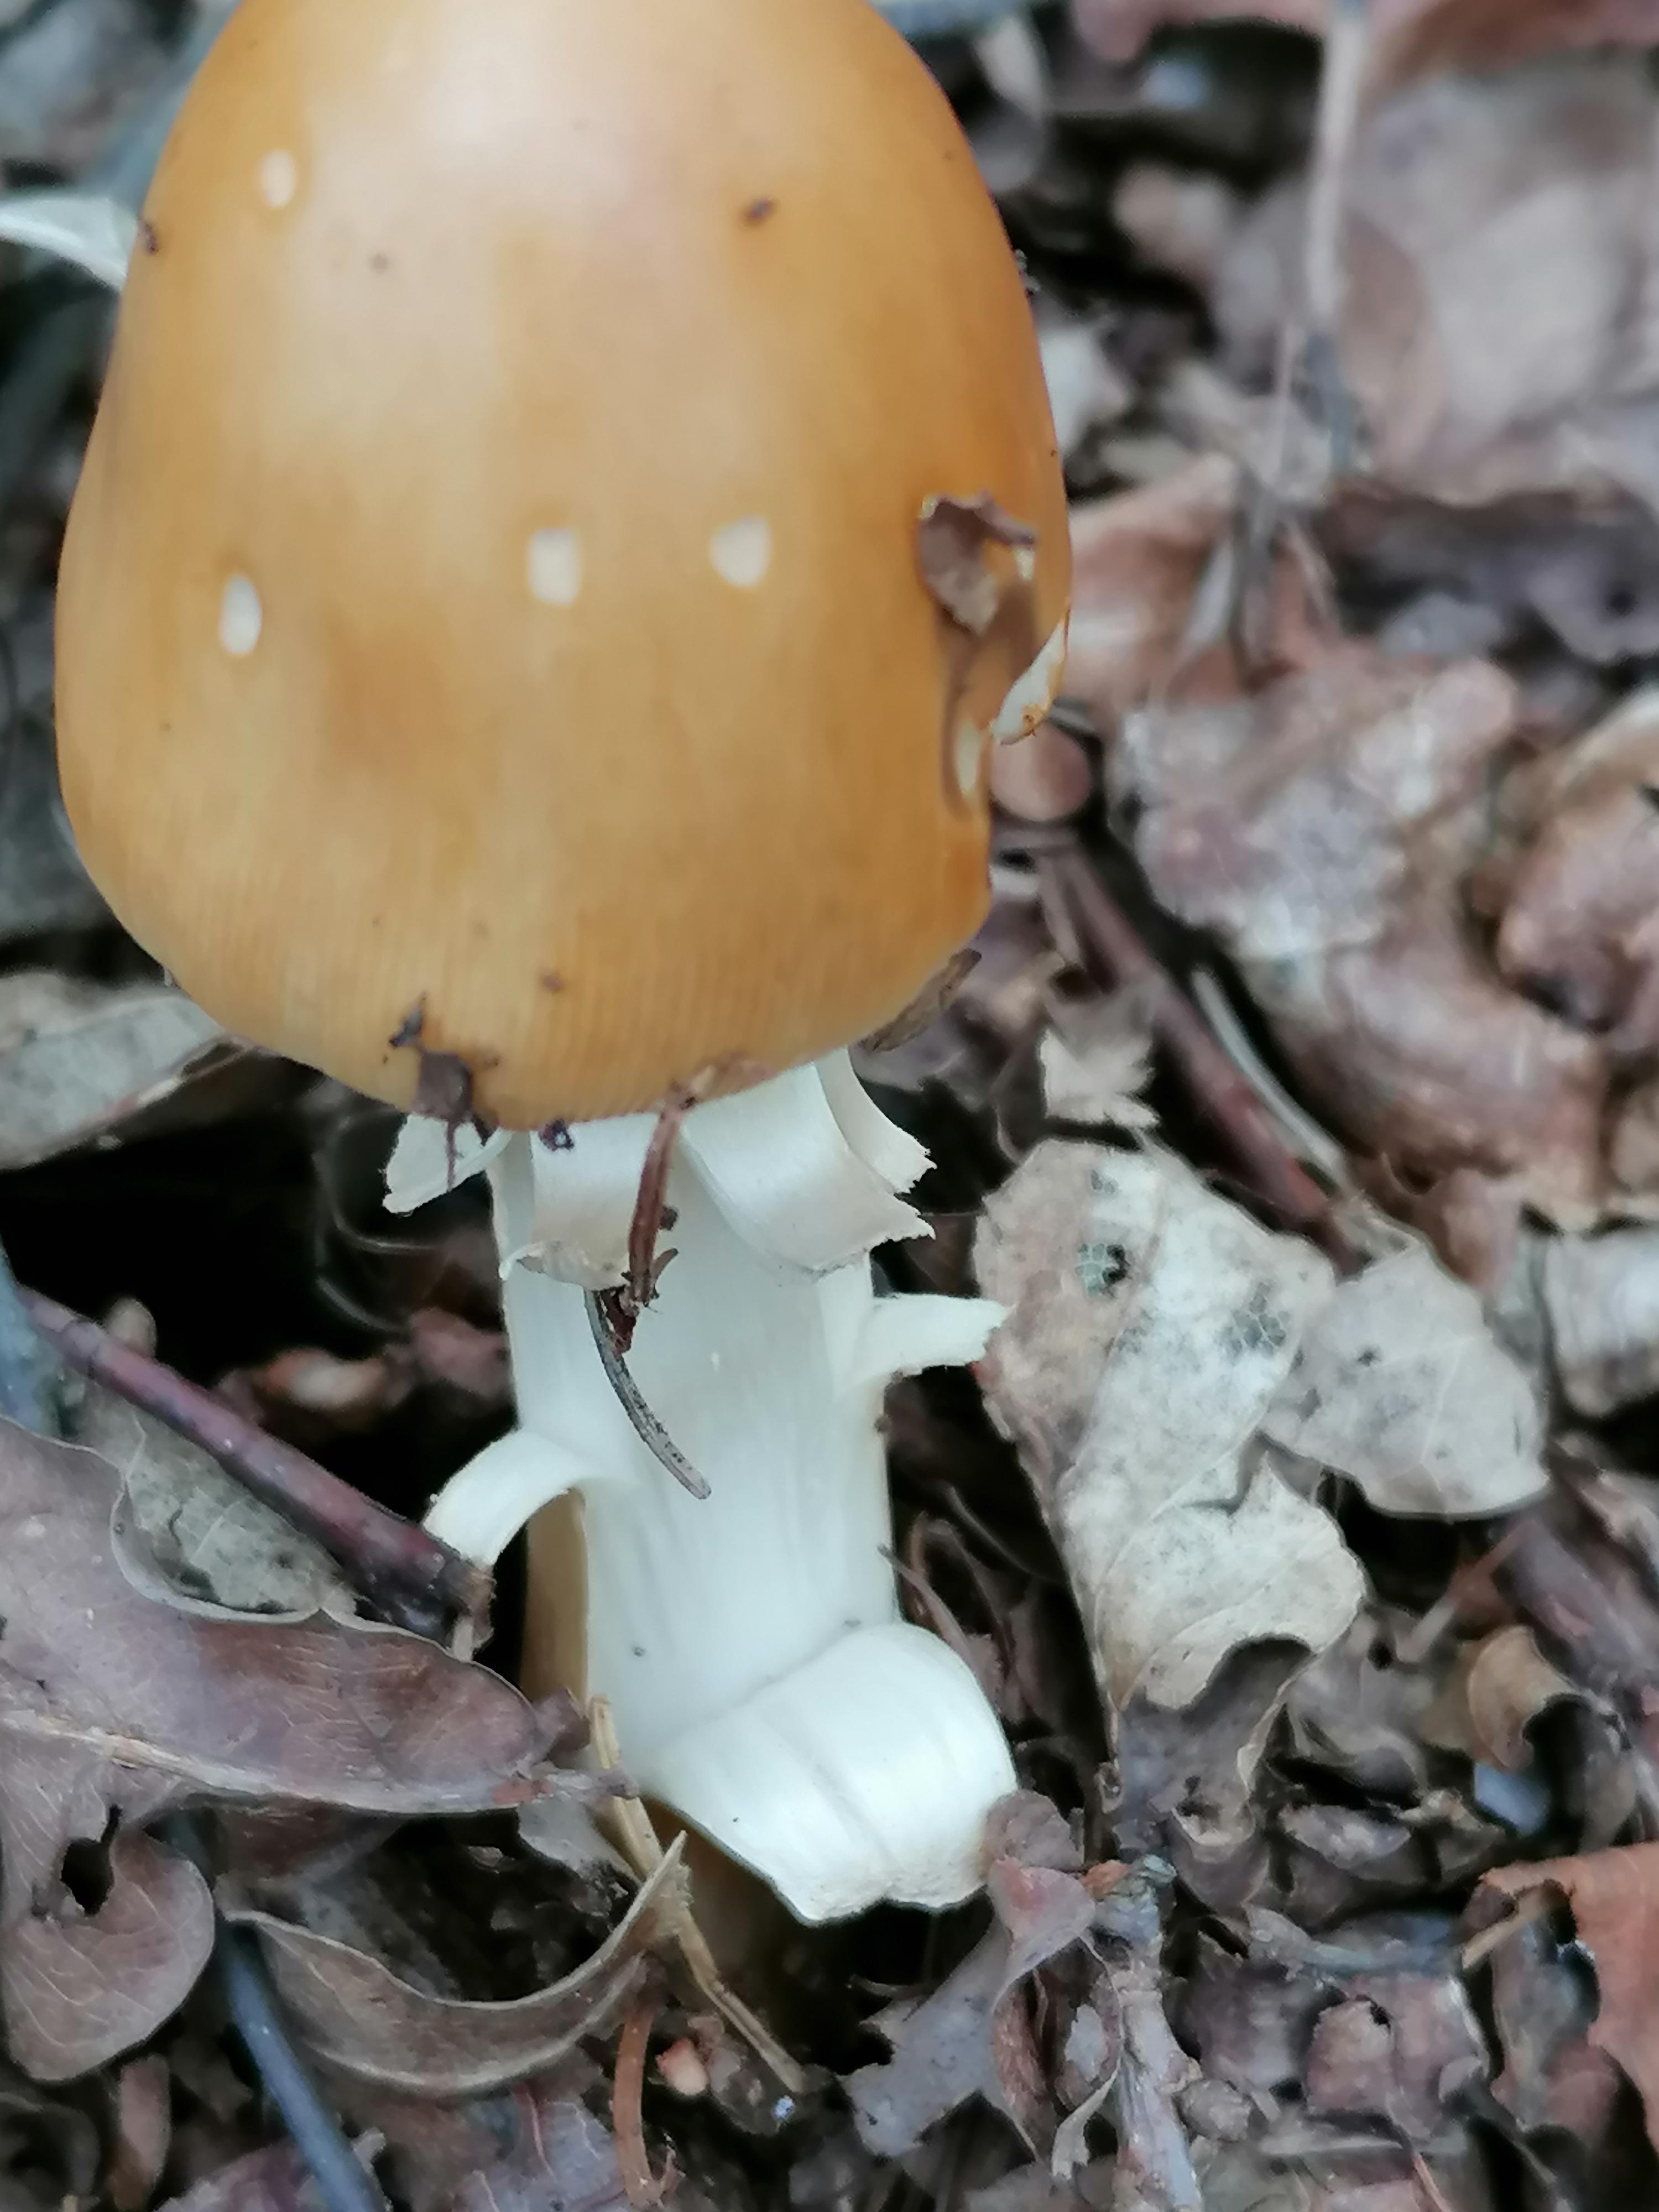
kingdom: Fungi
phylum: Basidiomycota
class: Agaricomycetes
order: Agaricales
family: Amanitaceae
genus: Amanita
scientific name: Amanita fulva
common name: brun kam-fluesvamp
